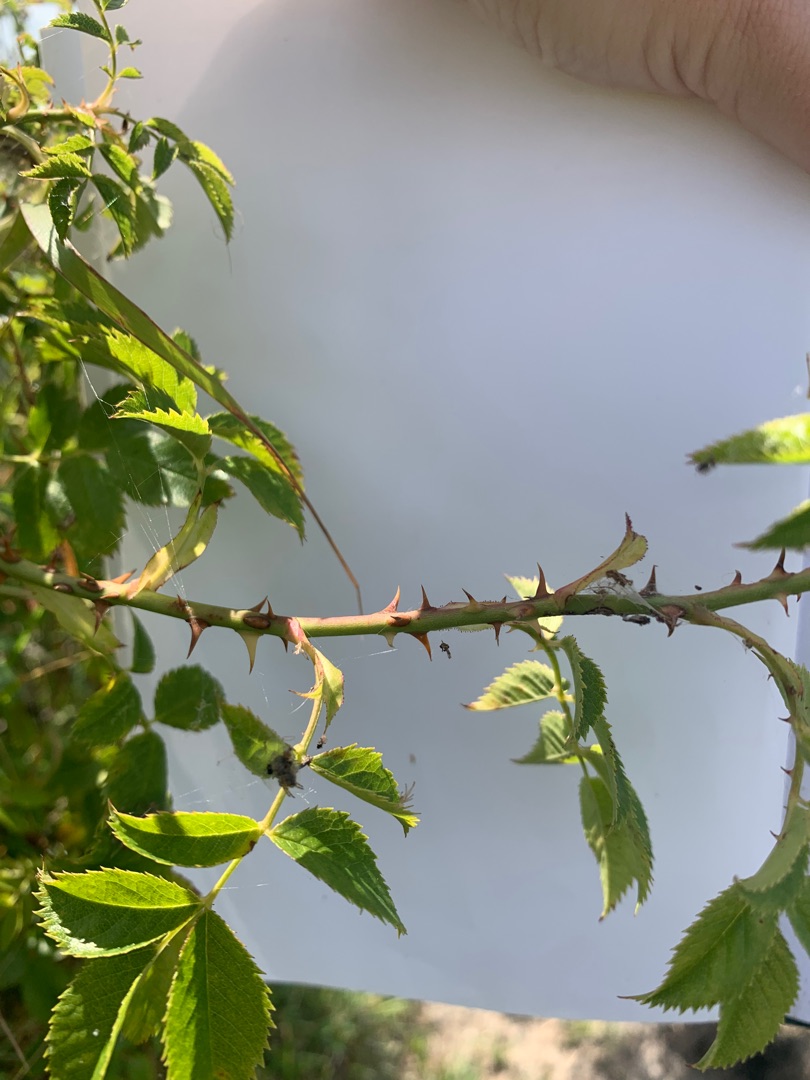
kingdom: Plantae
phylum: Tracheophyta
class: Magnoliopsida
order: Rosales
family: Rosaceae
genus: Rosa
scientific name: Rosa canina
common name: Glat hunde-rose
